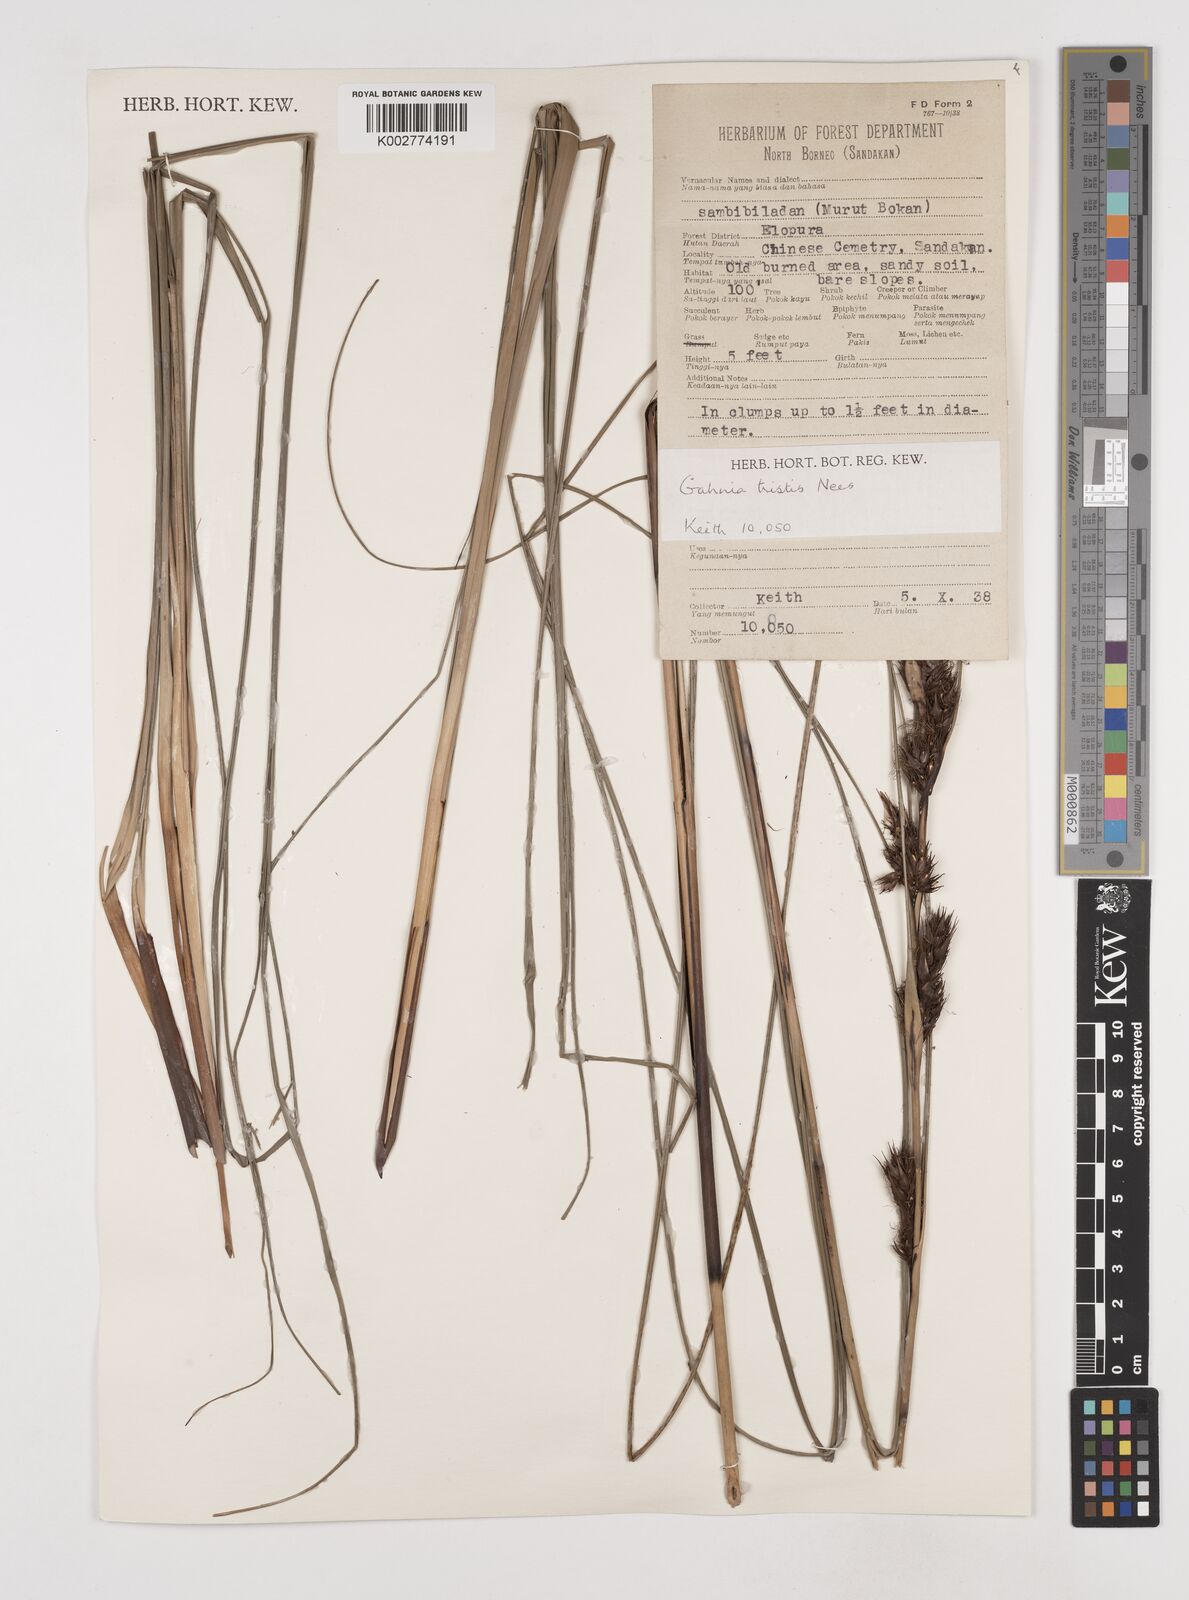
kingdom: Plantae
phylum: Tracheophyta
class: Liliopsida
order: Poales
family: Cyperaceae
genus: Gahnia
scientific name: Gahnia tristis
